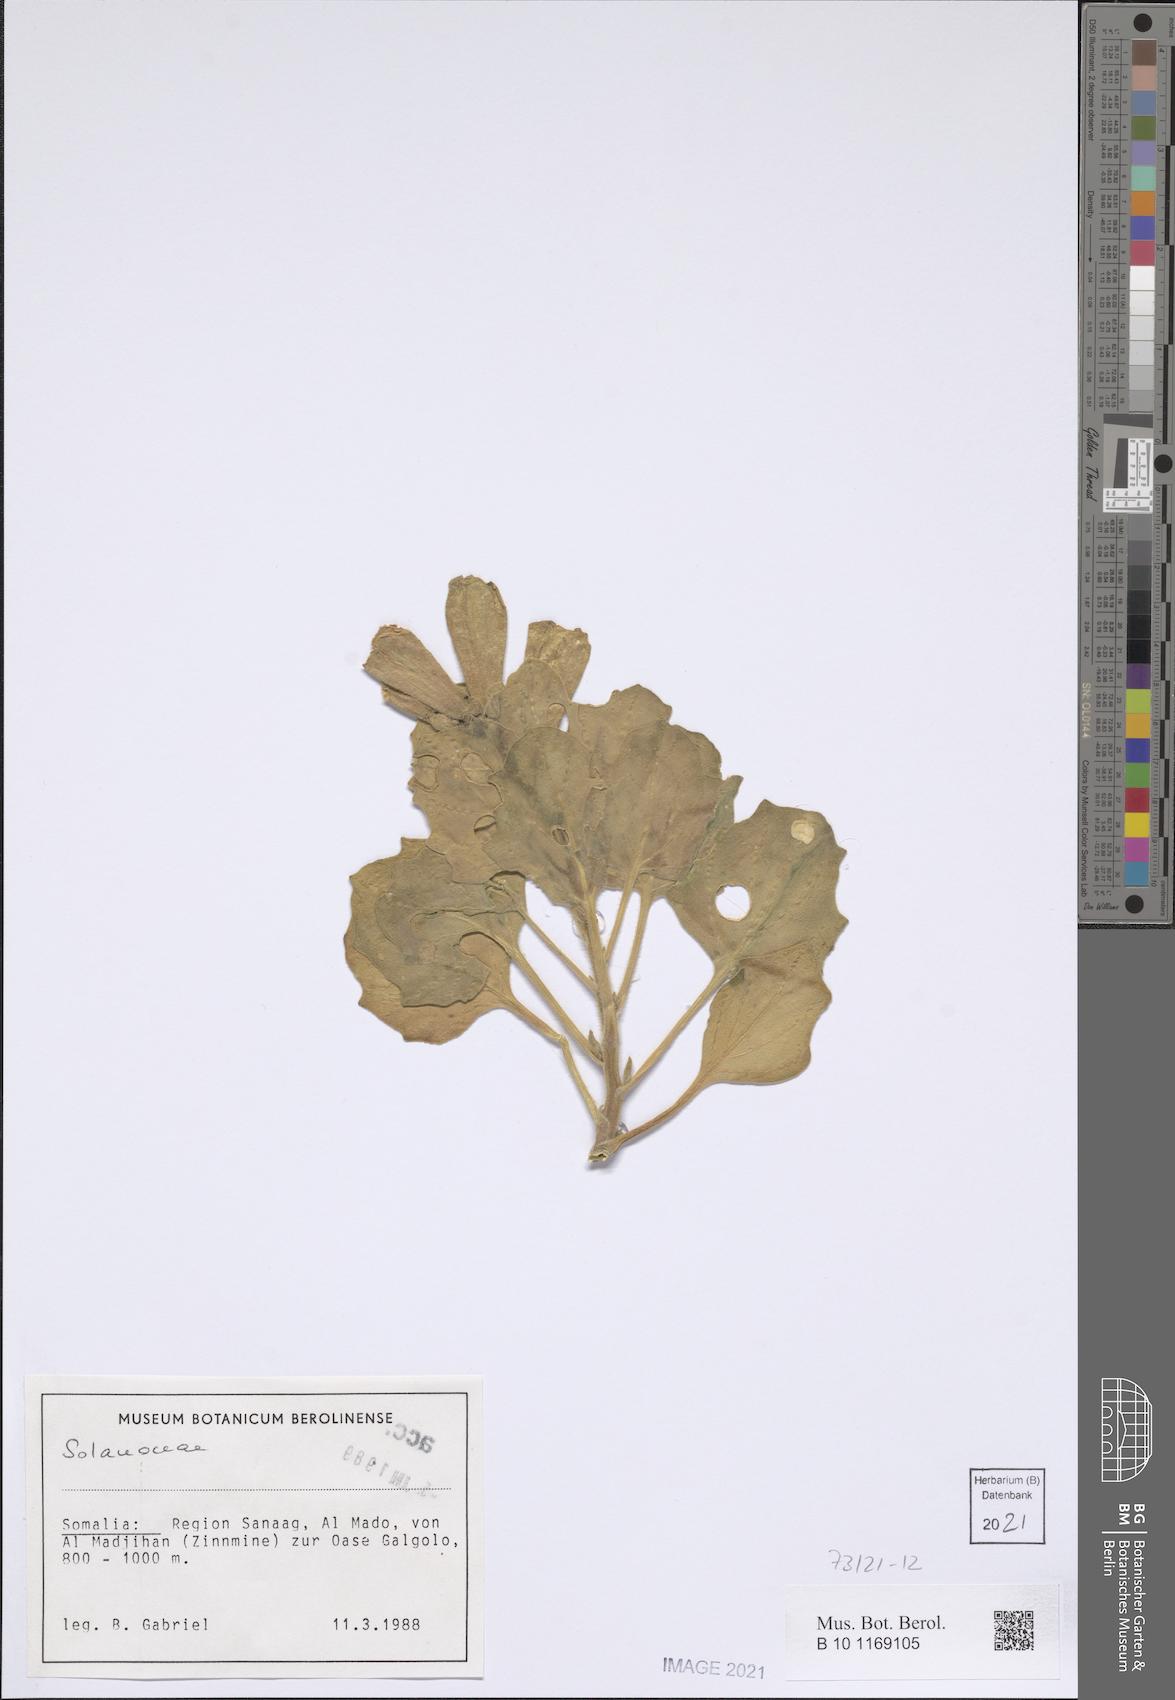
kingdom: Plantae
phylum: Tracheophyta
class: Magnoliopsida
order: Solanales
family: Solanaceae
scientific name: Solanaceae
